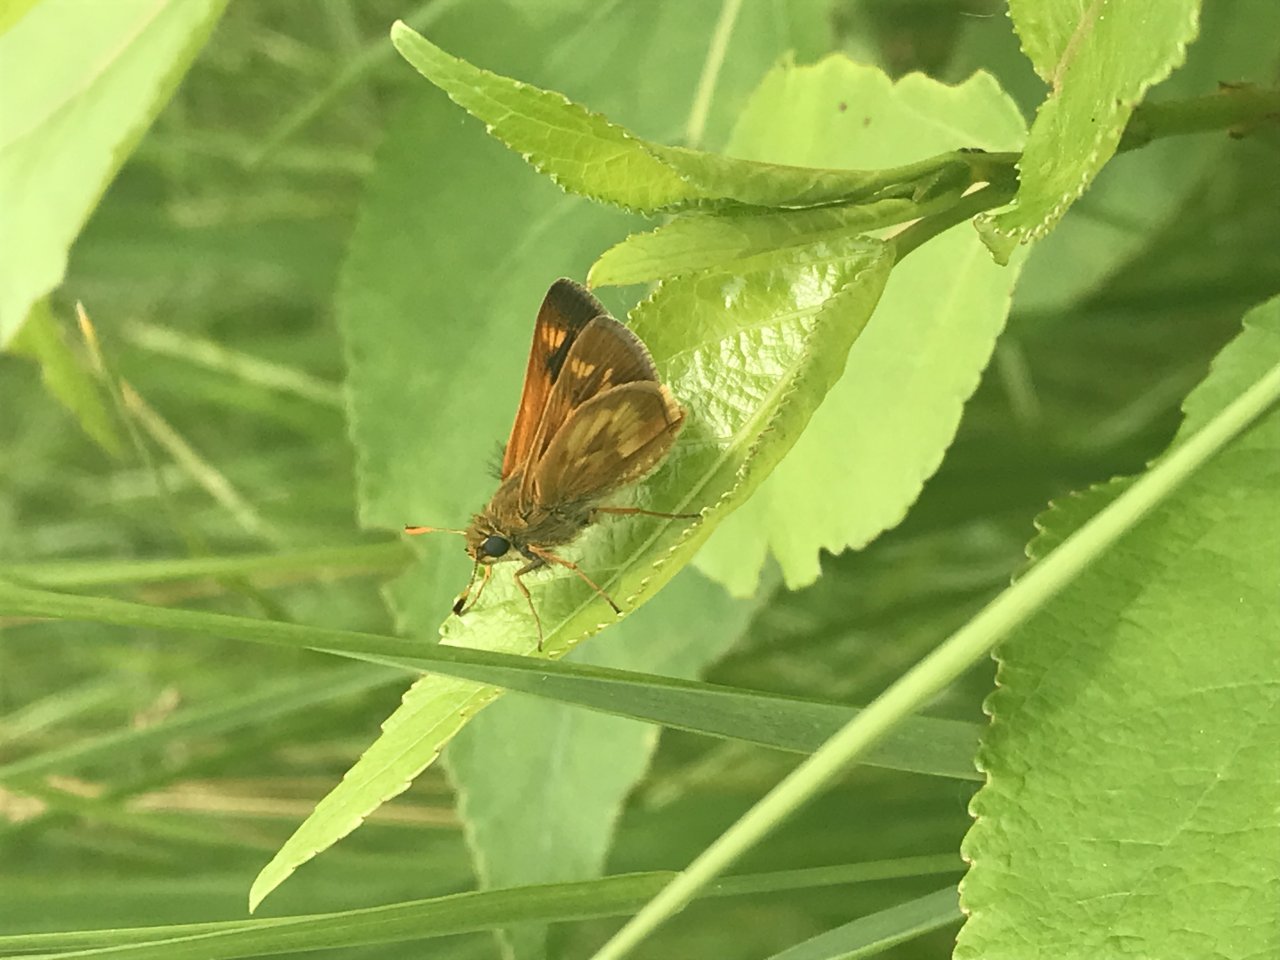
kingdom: Animalia
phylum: Arthropoda
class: Insecta
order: Lepidoptera
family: Hesperiidae
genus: Polites
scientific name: Polites
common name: Long Dash Skipper
